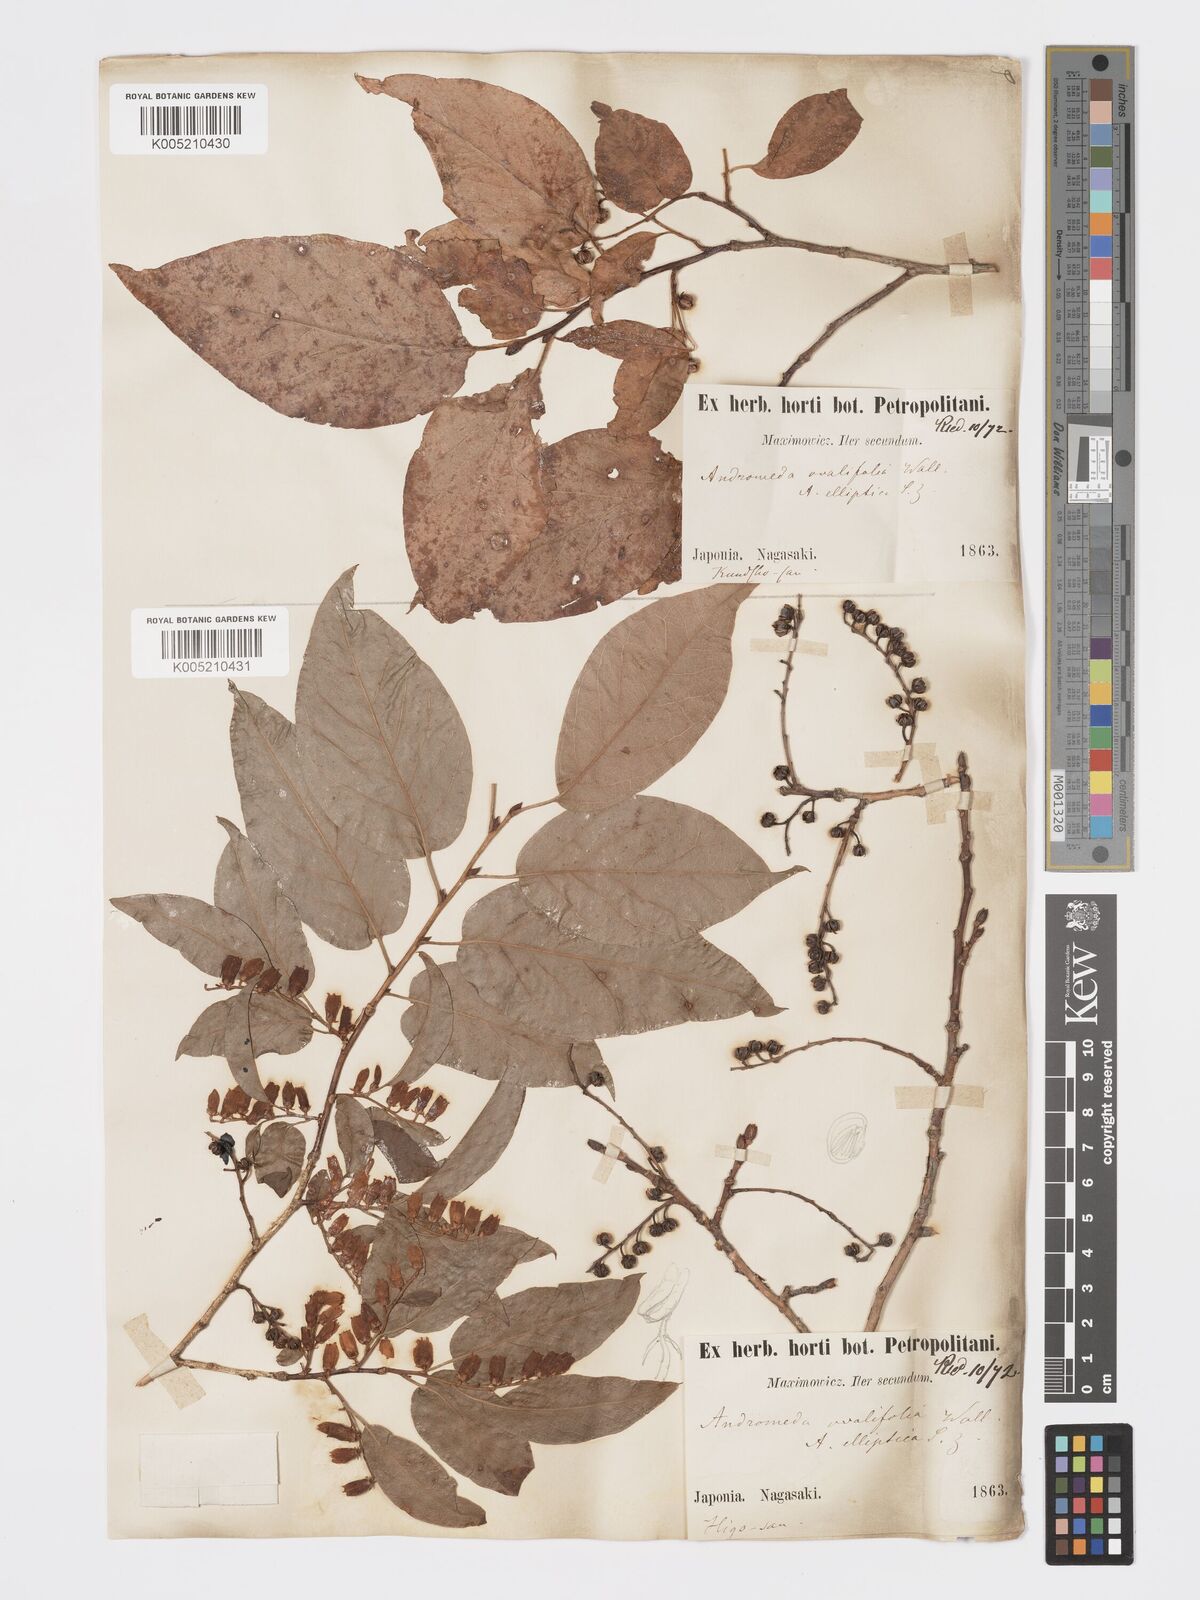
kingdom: Plantae
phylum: Tracheophyta
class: Magnoliopsida
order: Ericales
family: Ericaceae
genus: Lyonia
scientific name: Lyonia elliptica
